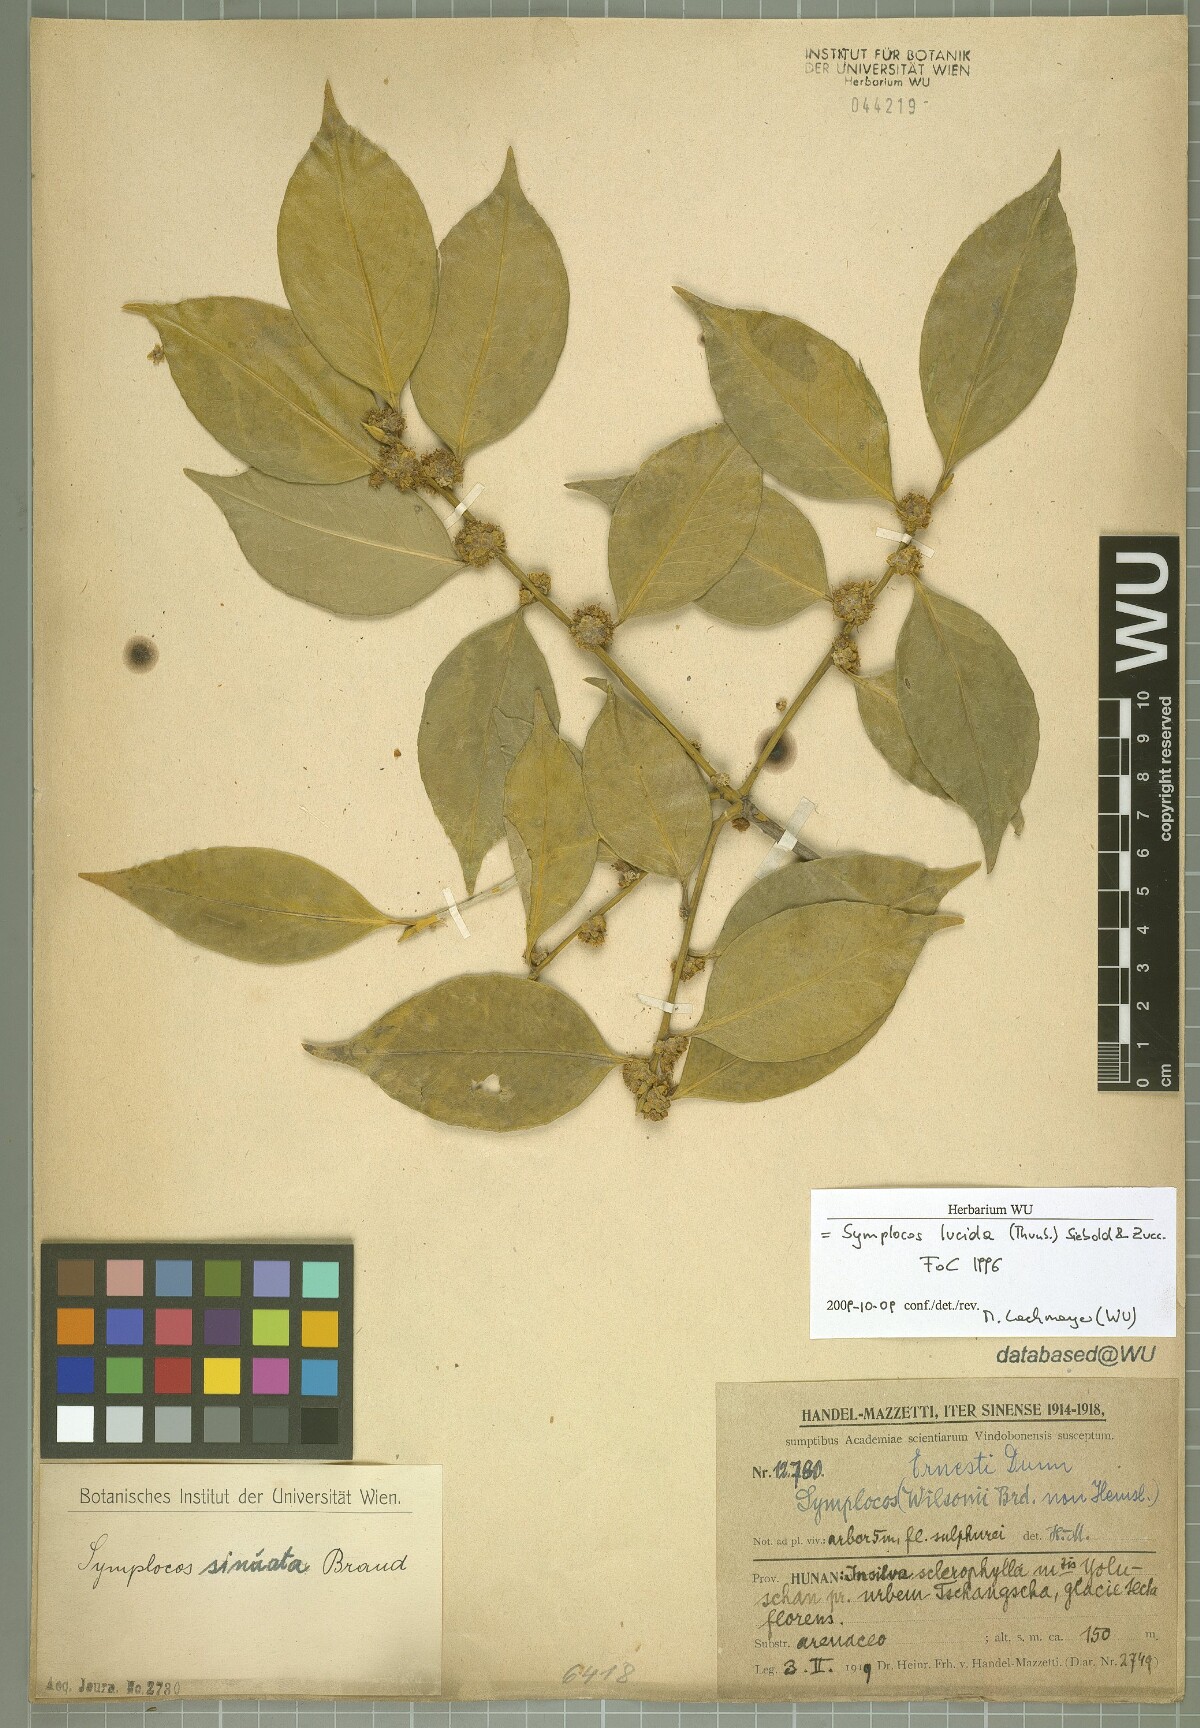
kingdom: Plantae
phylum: Tracheophyta
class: Magnoliopsida
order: Ericales
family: Symplocaceae
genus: Symplocos
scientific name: Symplocos nakaharae
